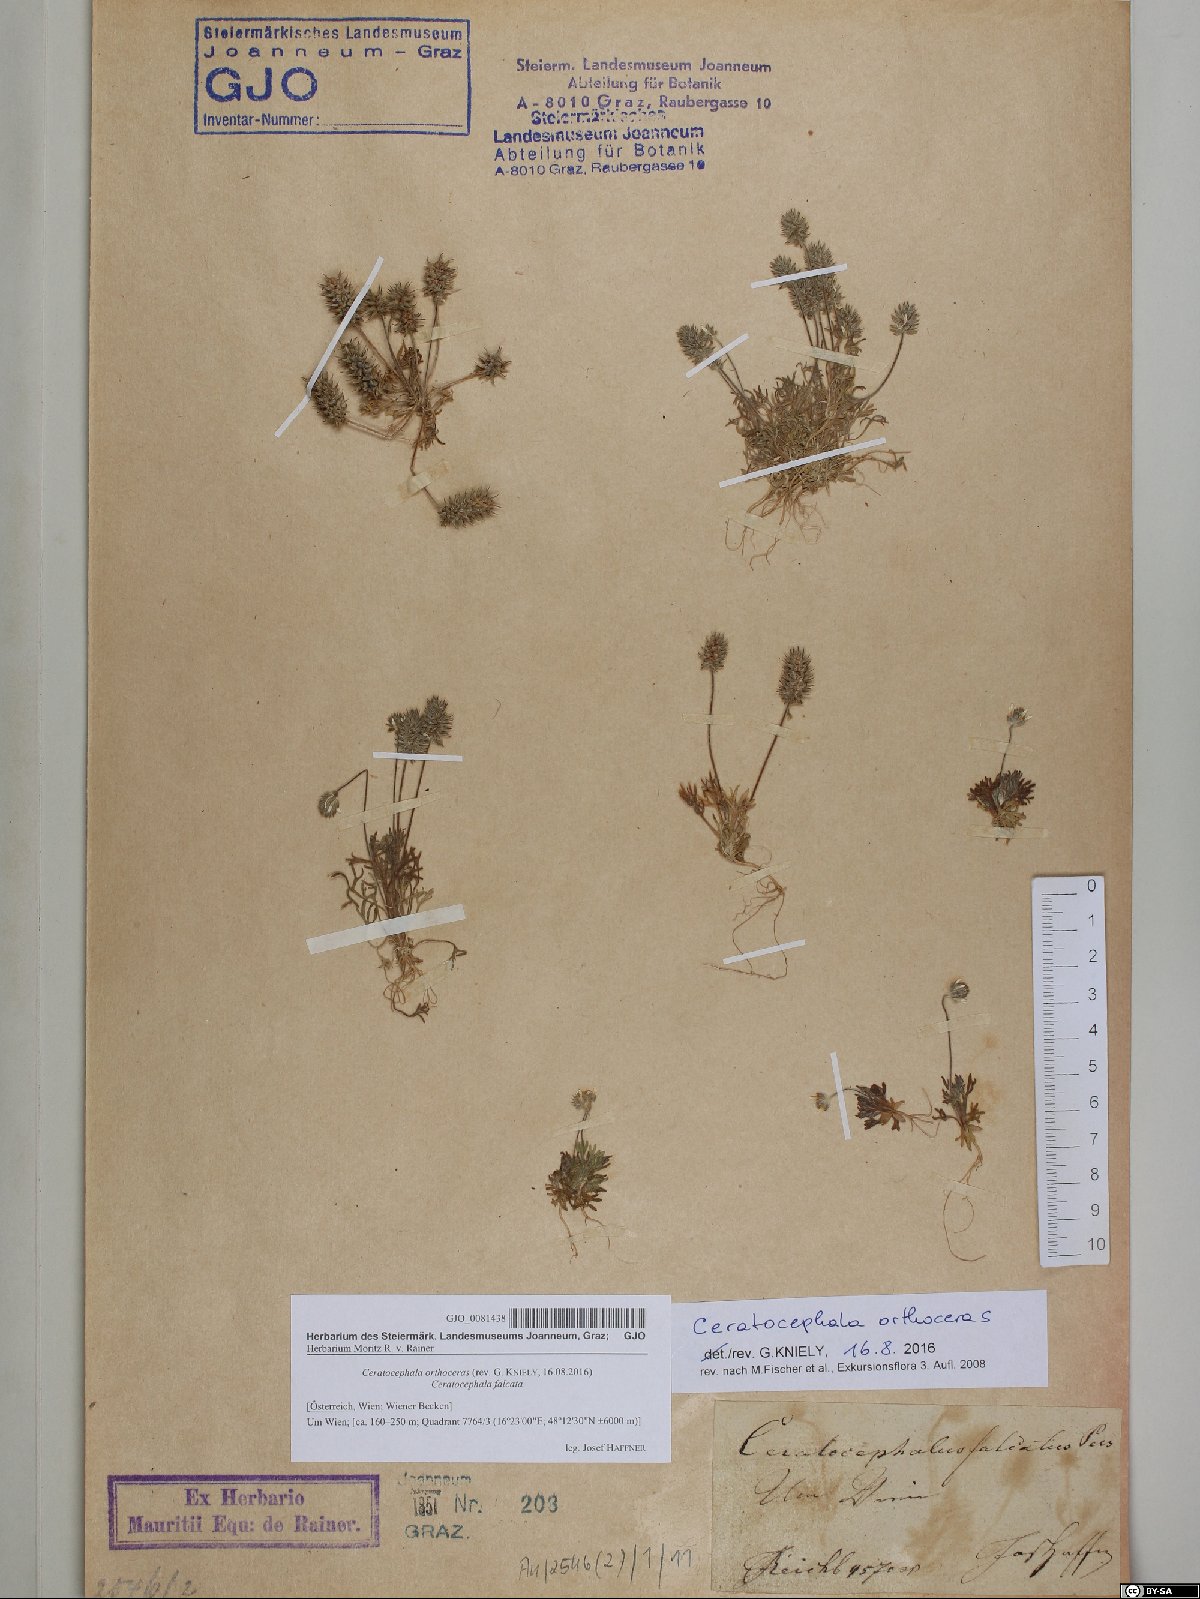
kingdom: Plantae
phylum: Tracheophyta
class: Magnoliopsida
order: Ranunculales
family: Ranunculaceae
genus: Ceratocephala
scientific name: Ceratocephala orthoceras
